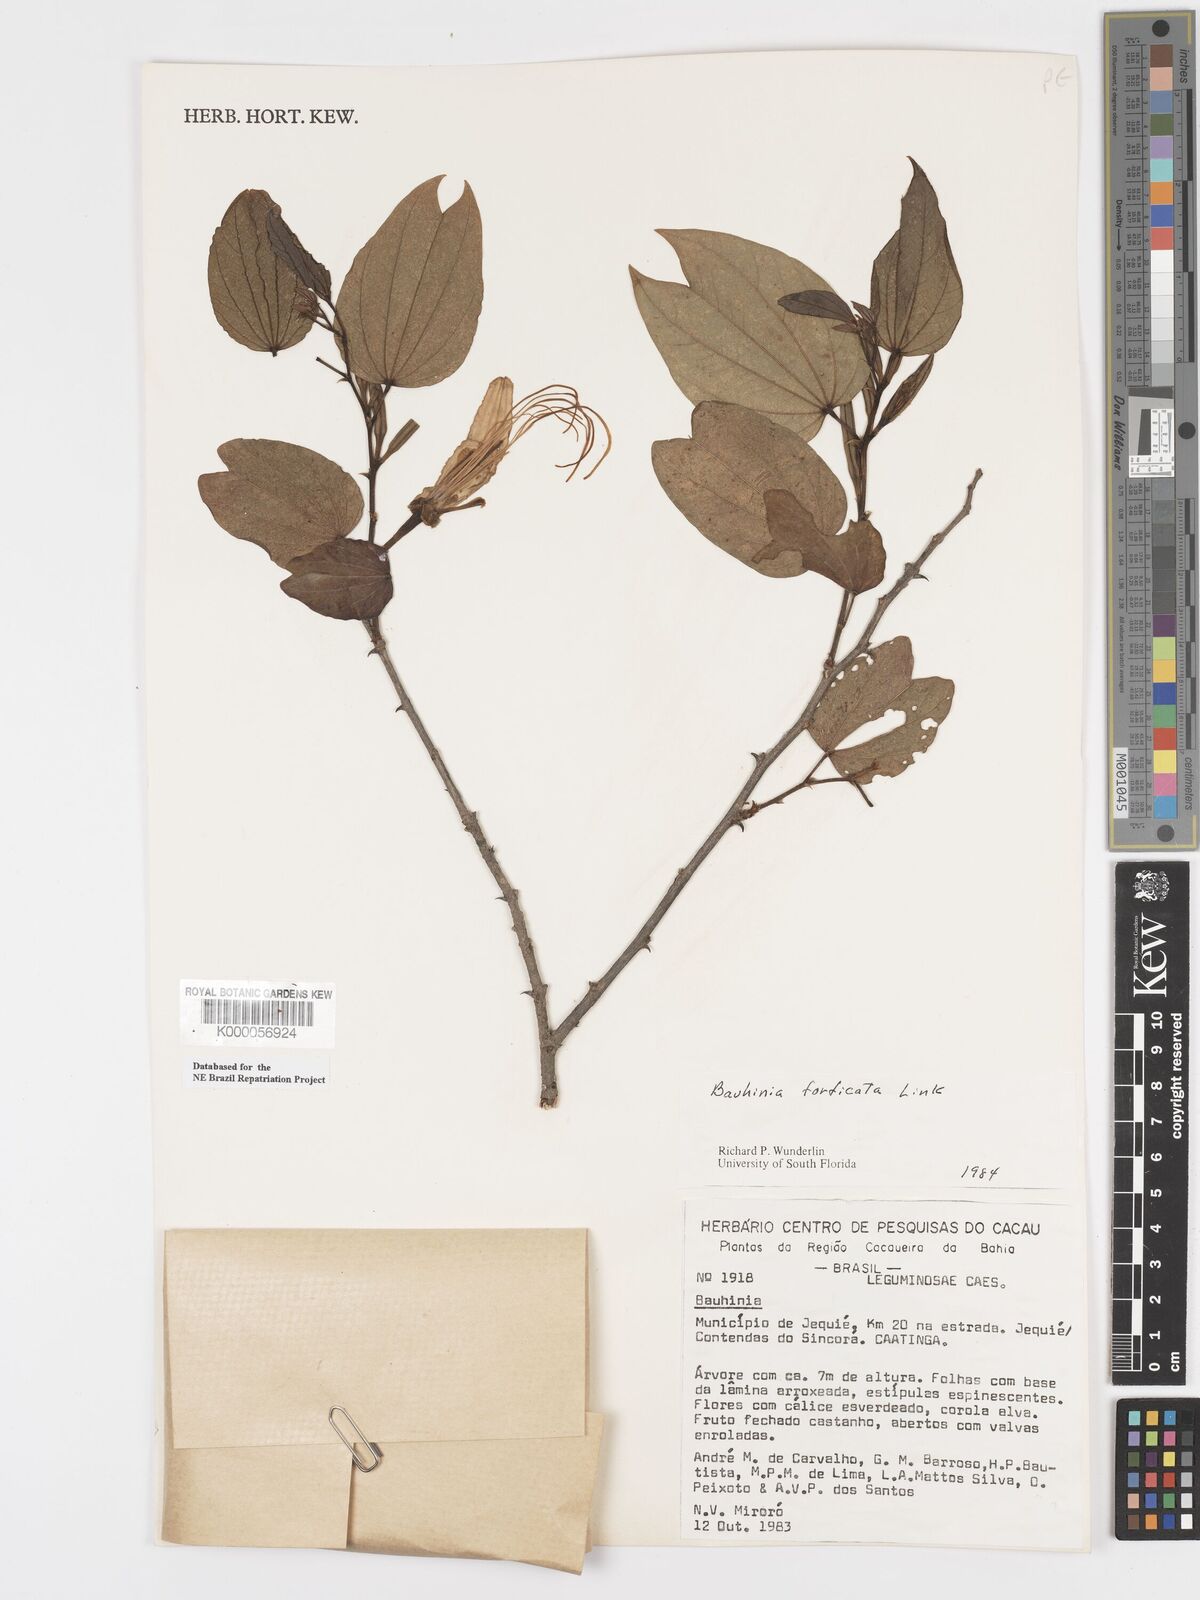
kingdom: Plantae
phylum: Tracheophyta
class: Magnoliopsida
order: Fabales
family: Fabaceae
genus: Bauhinia
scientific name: Bauhinia forficata
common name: Orchid tree
